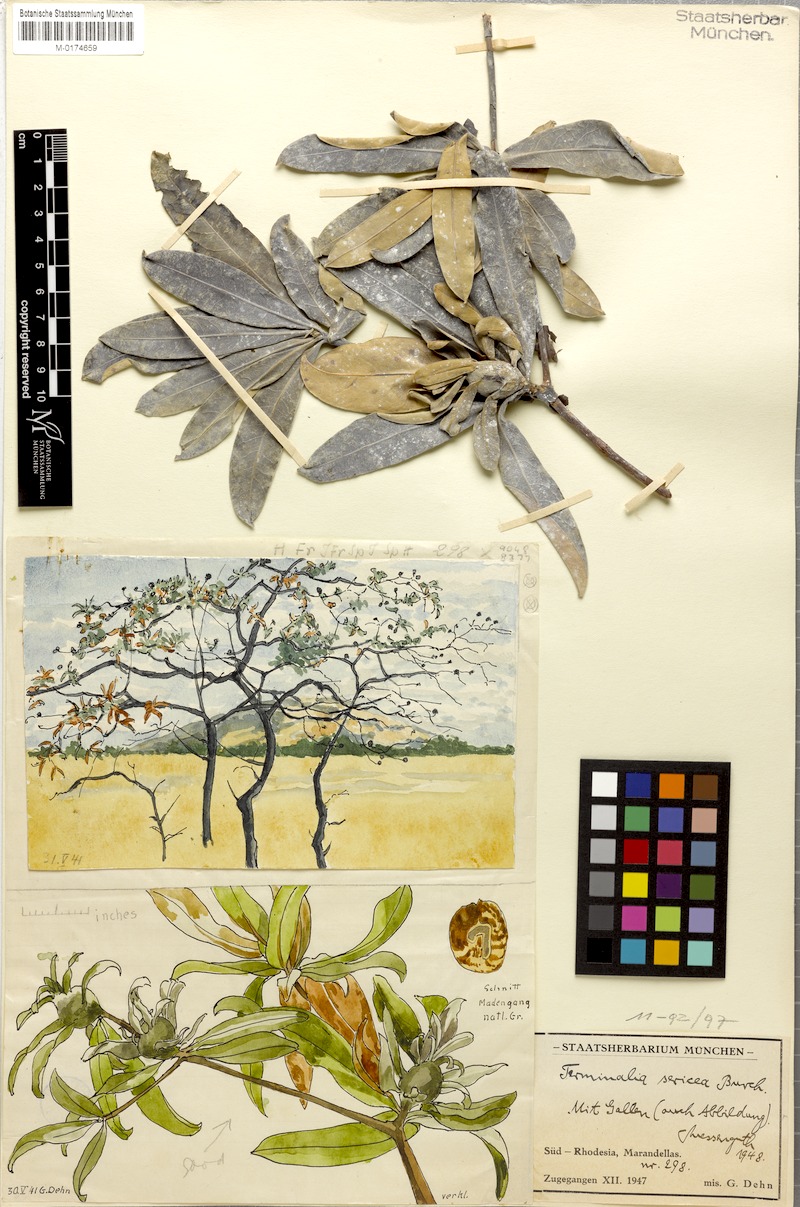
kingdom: Plantae
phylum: Tracheophyta
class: Magnoliopsida
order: Myrtales
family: Combretaceae
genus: Terminalia
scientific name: Terminalia sericea
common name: Clusterleaf
